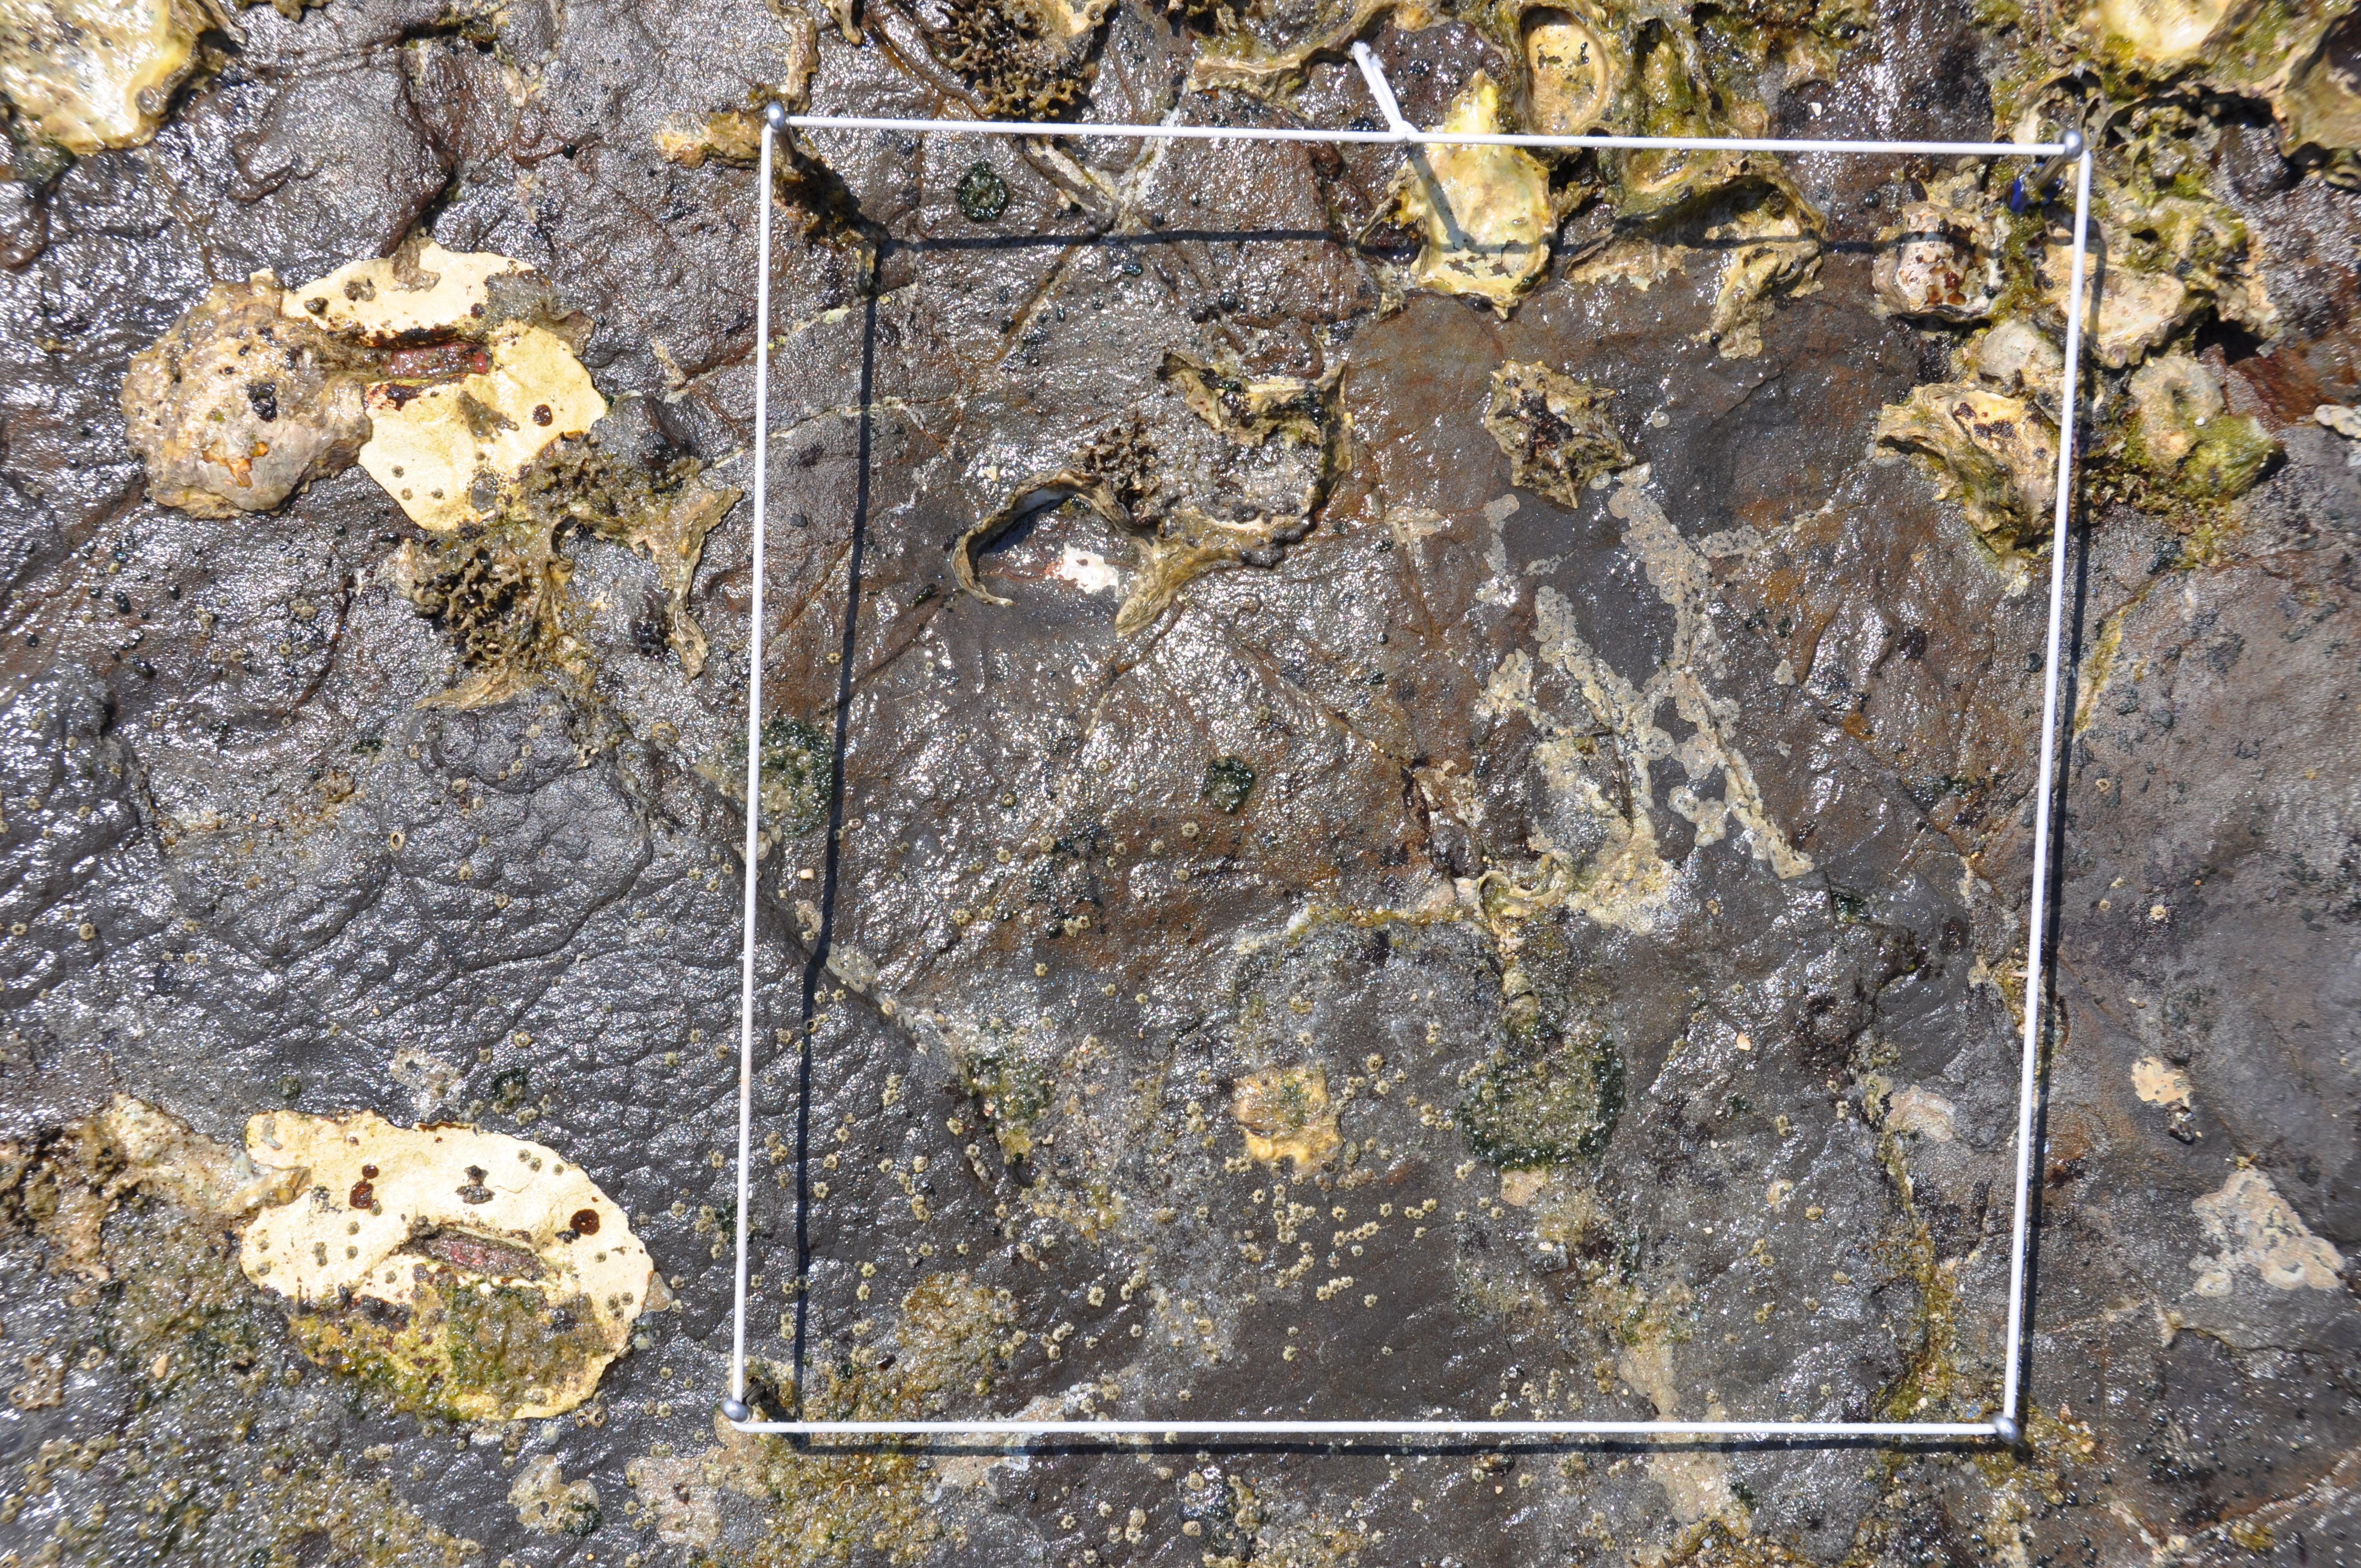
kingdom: Animalia
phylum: Arthropoda
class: Maxillopoda
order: Sessilia
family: Chthamalidae
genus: Chthamalus
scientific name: Chthamalus challengeri
